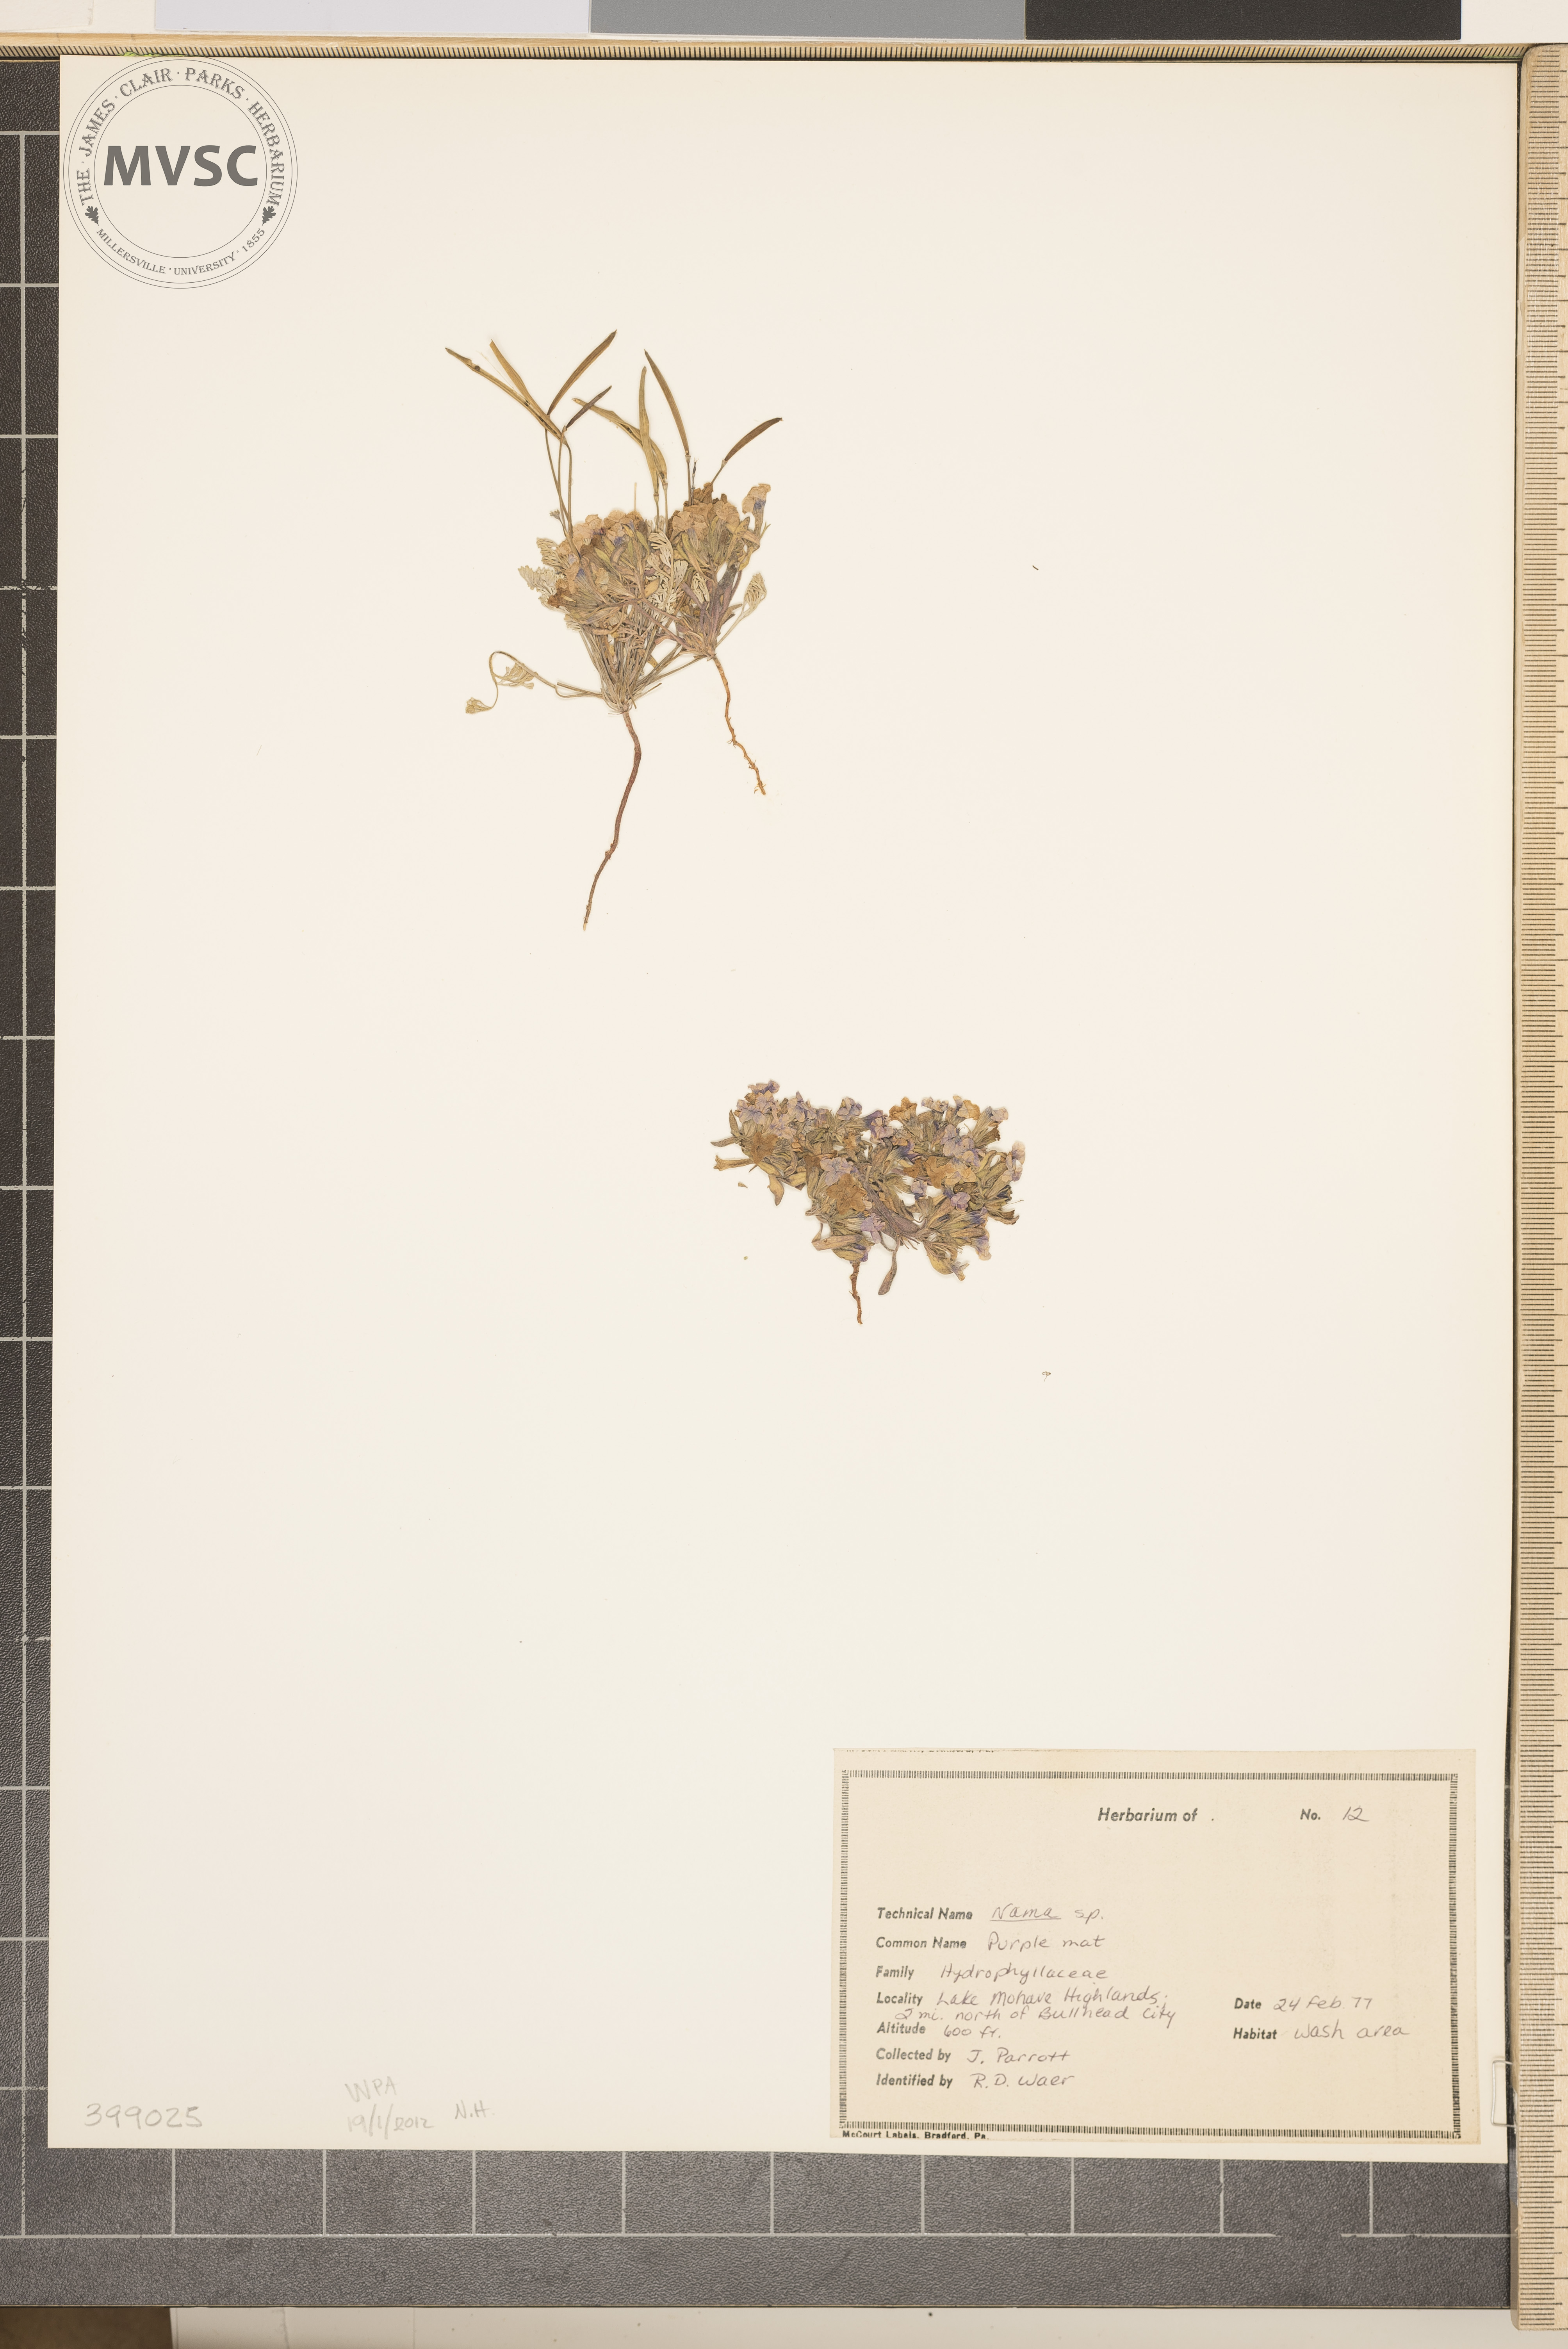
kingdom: Plantae
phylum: Tracheophyta
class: Magnoliopsida
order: Boraginales
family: Namaceae
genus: Nama
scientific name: Nama
